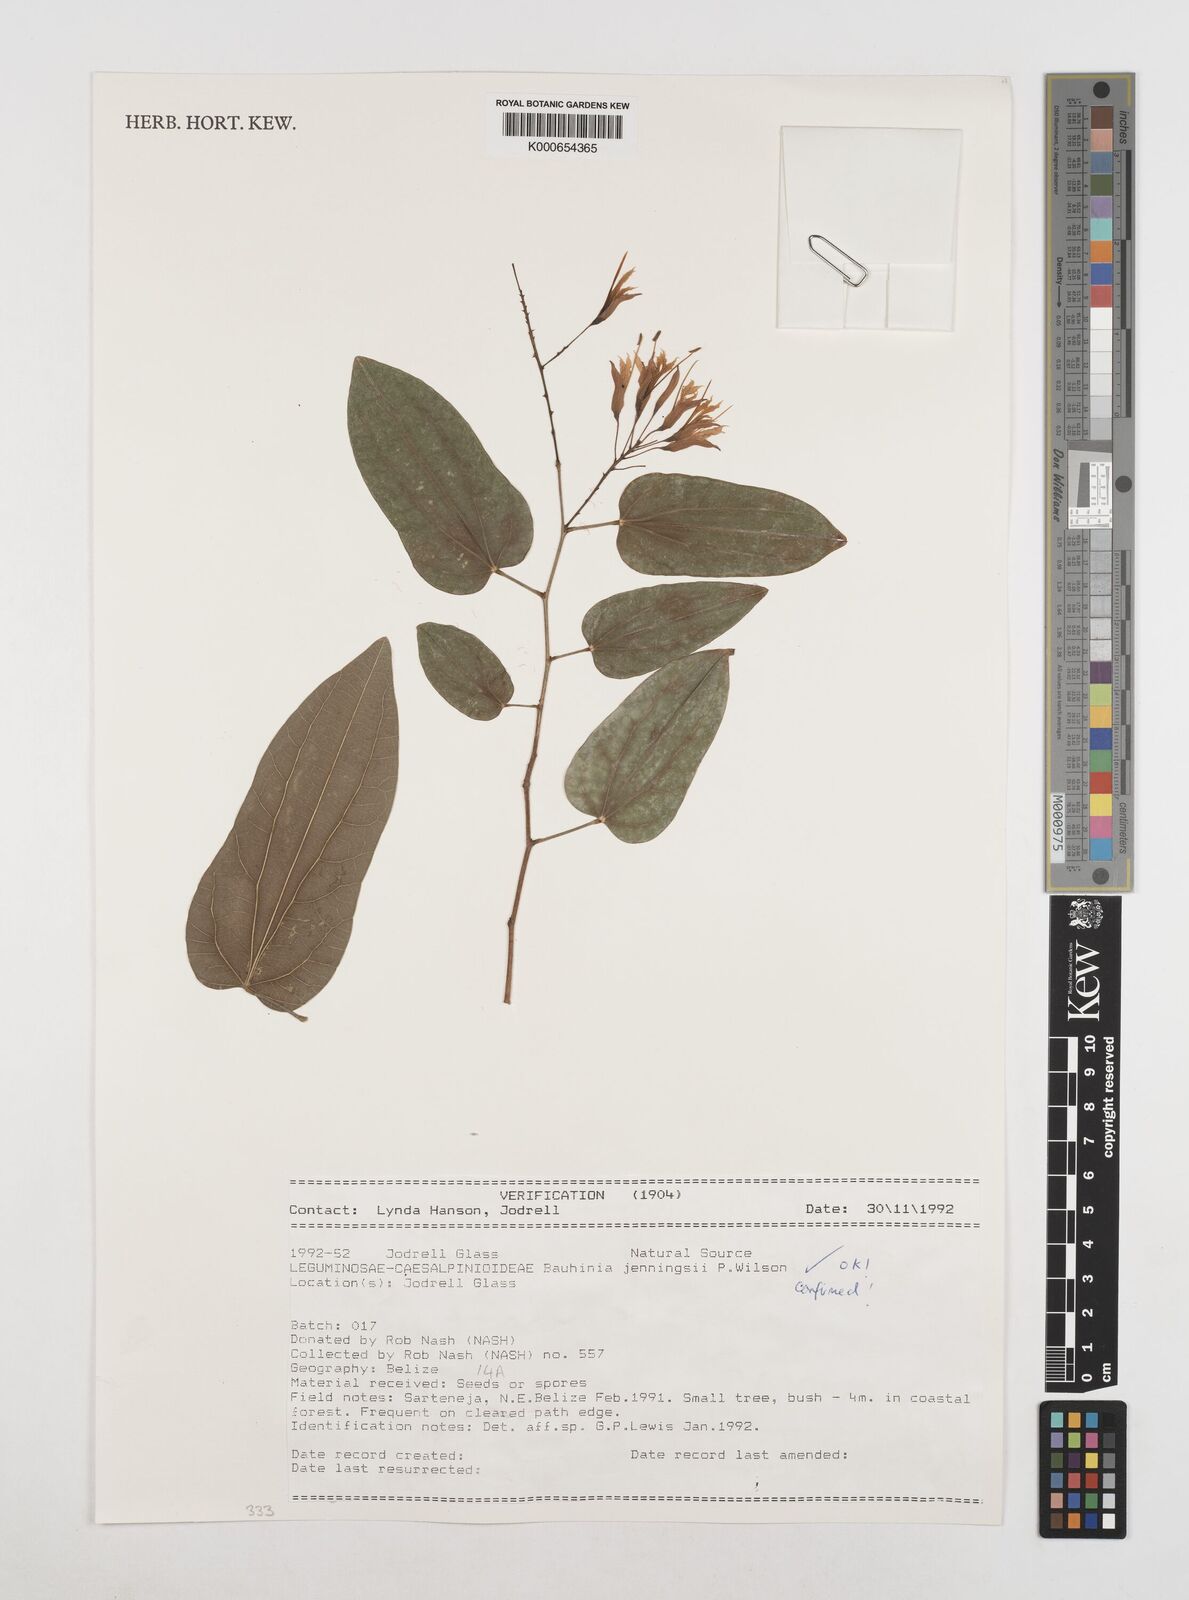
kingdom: Plantae
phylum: Tracheophyta
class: Magnoliopsida
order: Fabales
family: Fabaceae
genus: Bauhinia
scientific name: Bauhinia jenningsii
